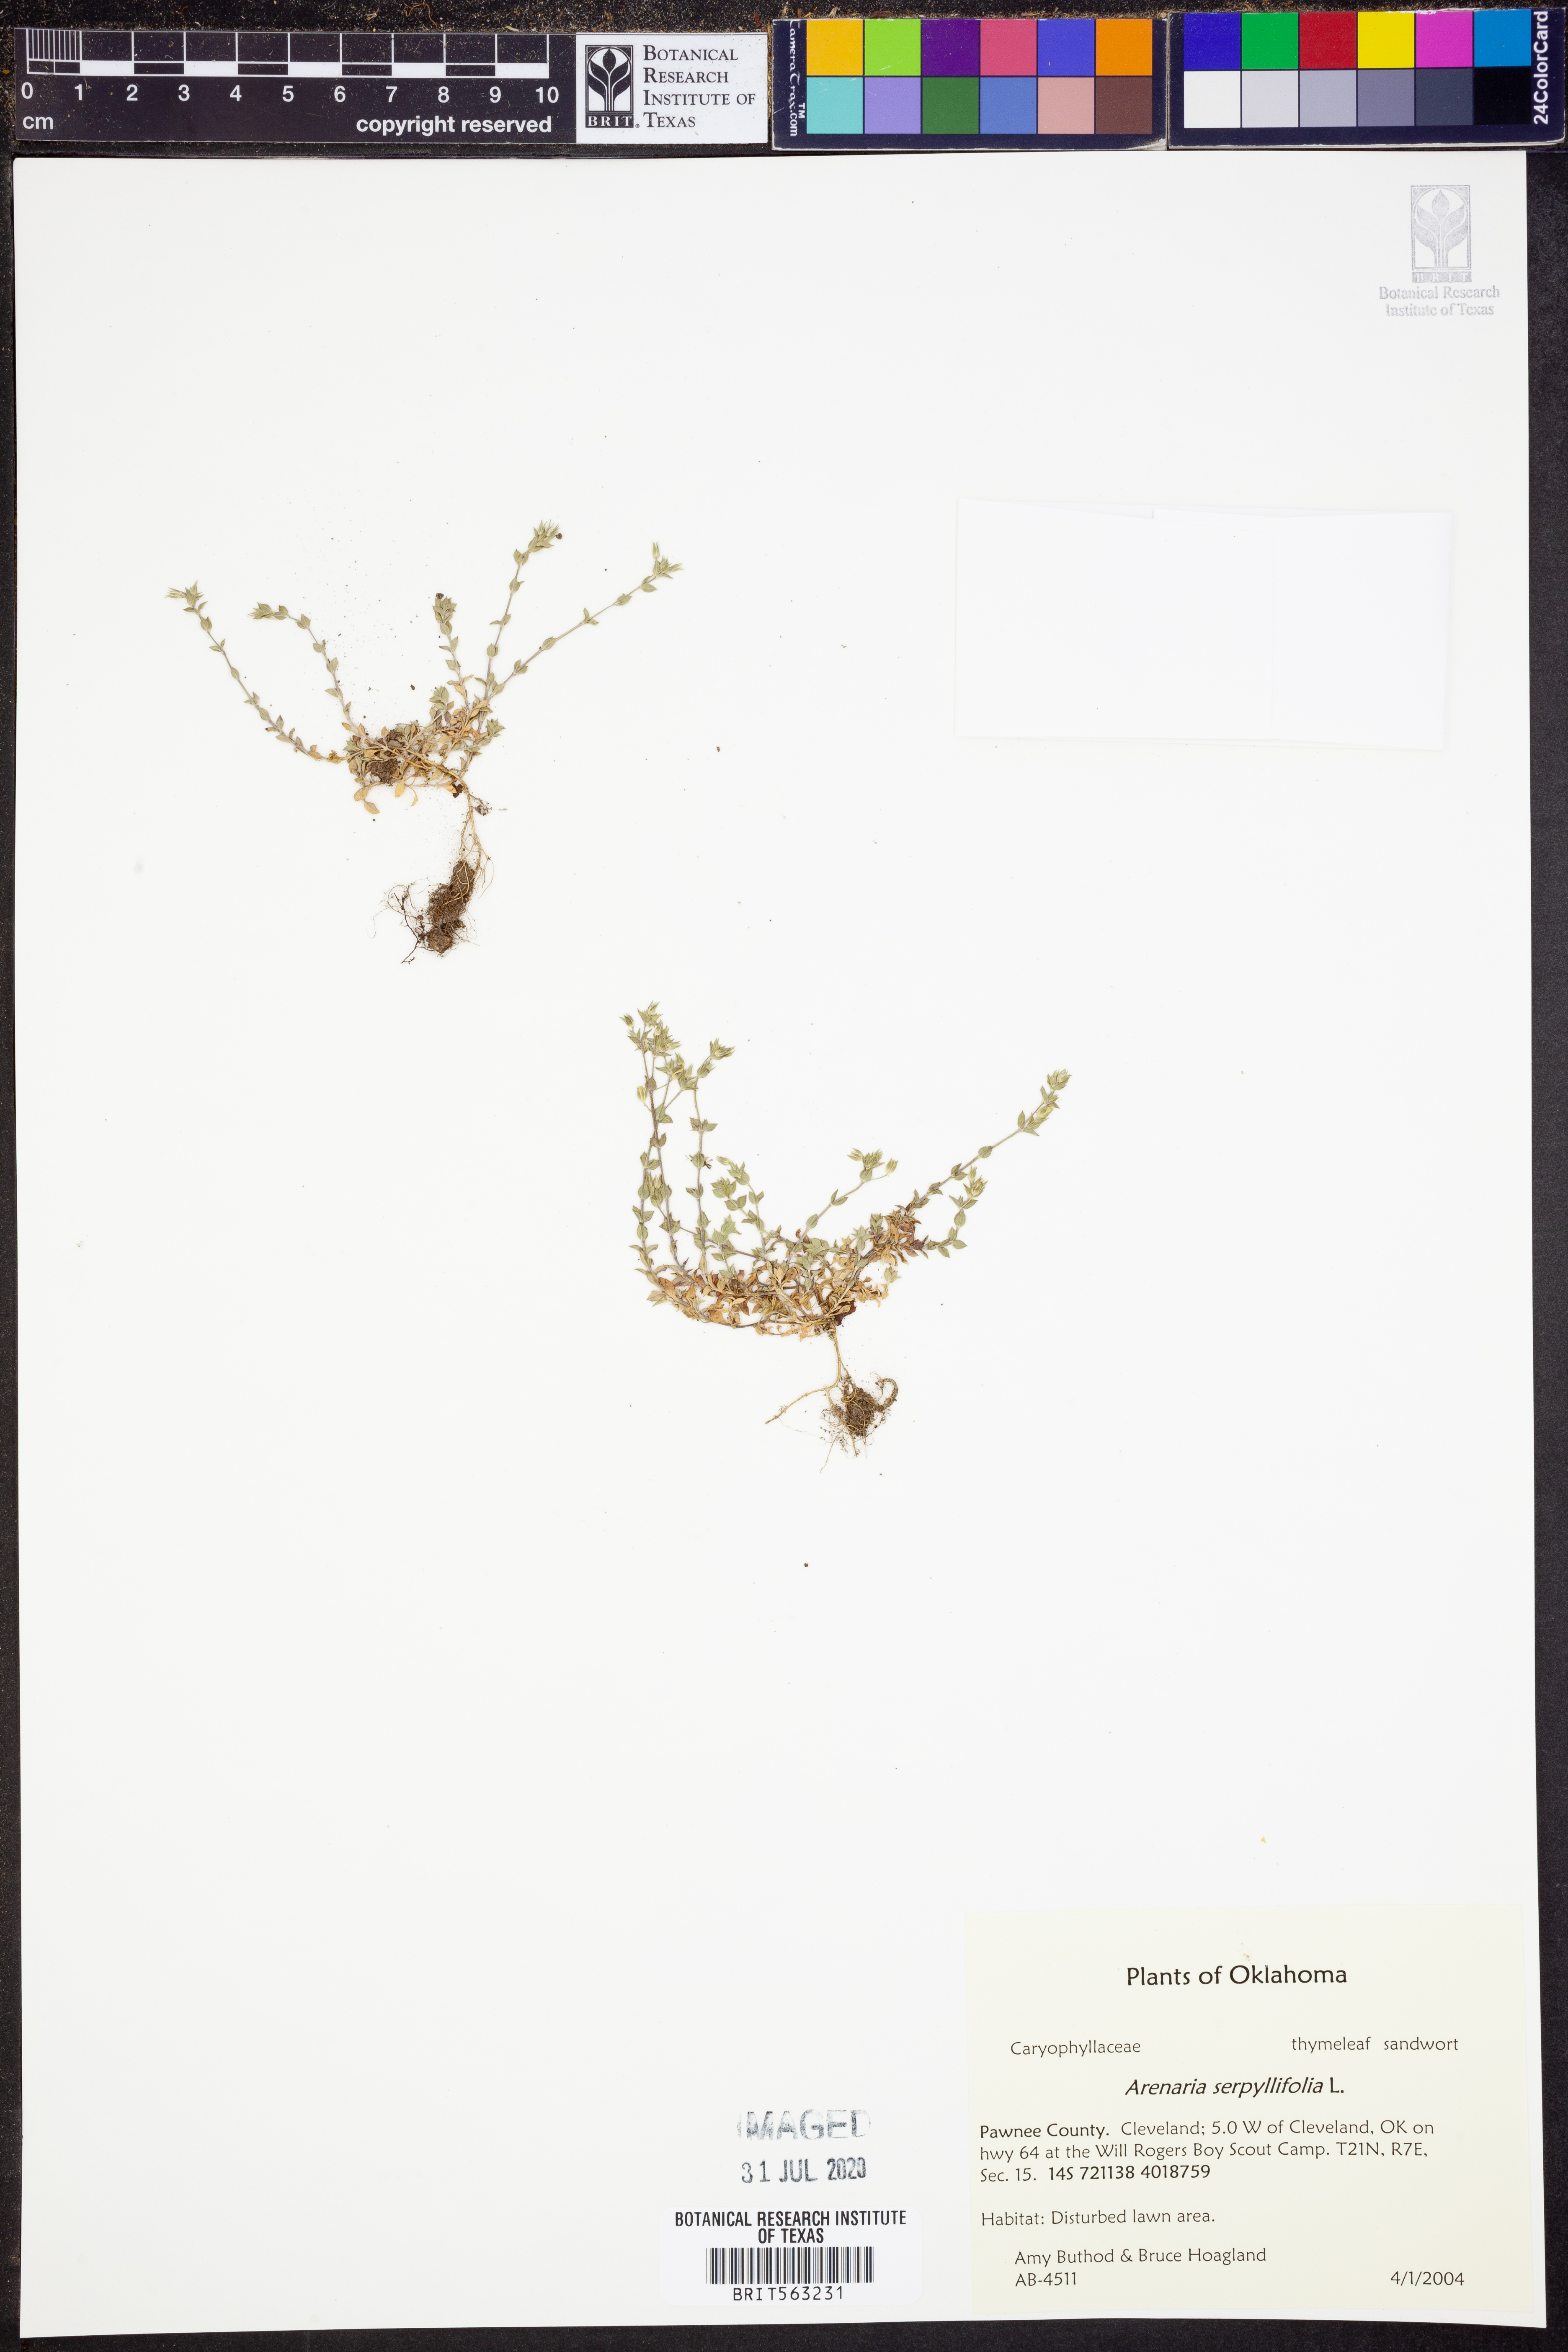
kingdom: Plantae
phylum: Tracheophyta
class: Magnoliopsida
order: Caryophyllales
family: Caryophyllaceae
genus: Arenaria
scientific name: Arenaria serpyllifolia
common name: Thyme-leaved sandwort
